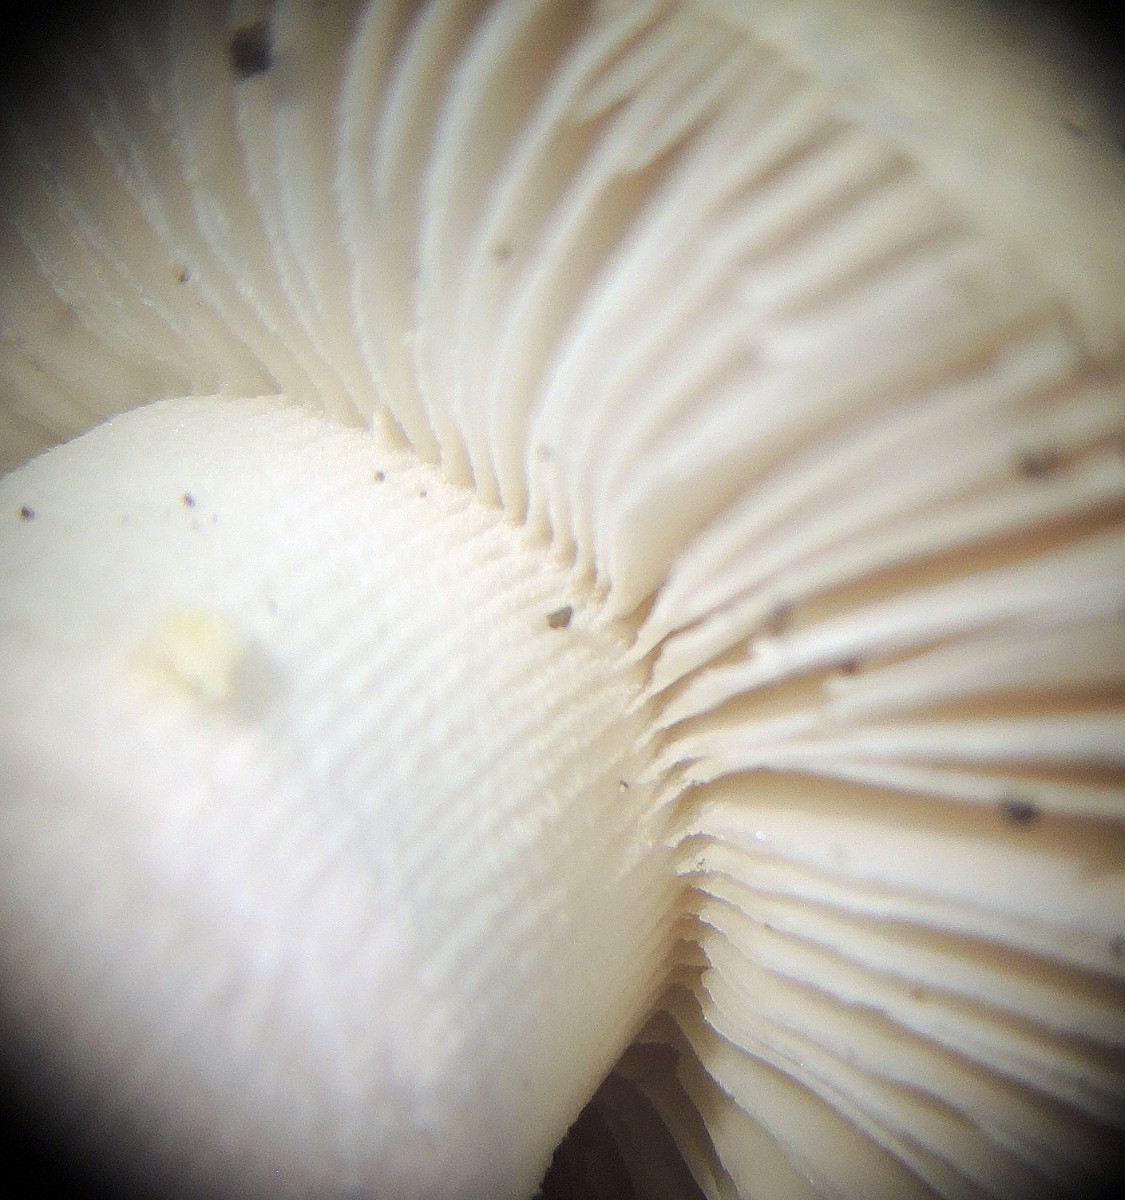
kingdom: Fungi
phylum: Basidiomycota
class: Agaricomycetes
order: Agaricales
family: Amanitaceae
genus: Amanita
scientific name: Amanita franchetii
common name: gulrandet fluesvamp
